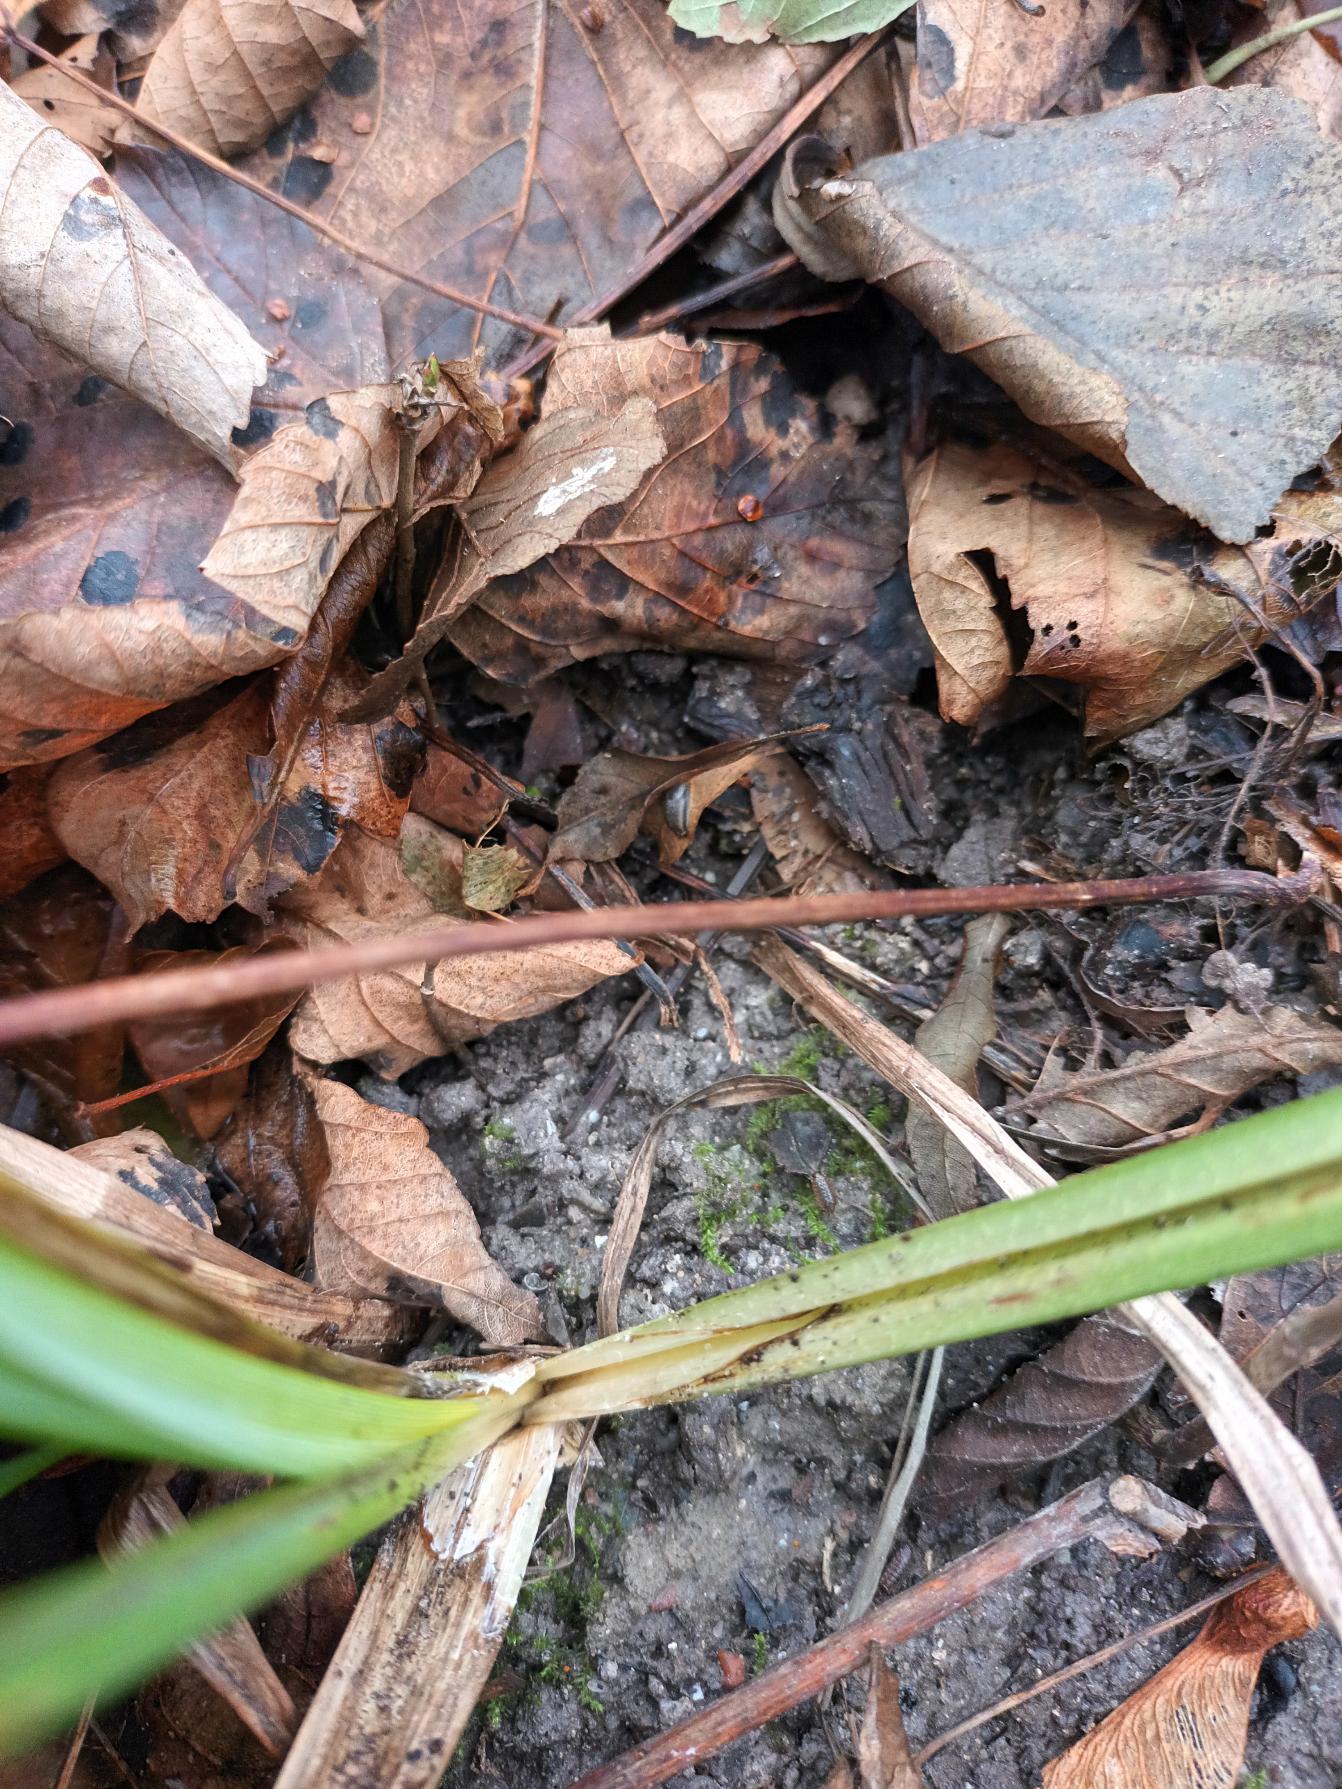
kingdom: Plantae
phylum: Tracheophyta
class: Liliopsida
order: Poales
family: Cyperaceae
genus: Carex
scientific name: Carex acutiformis
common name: Kær-star
